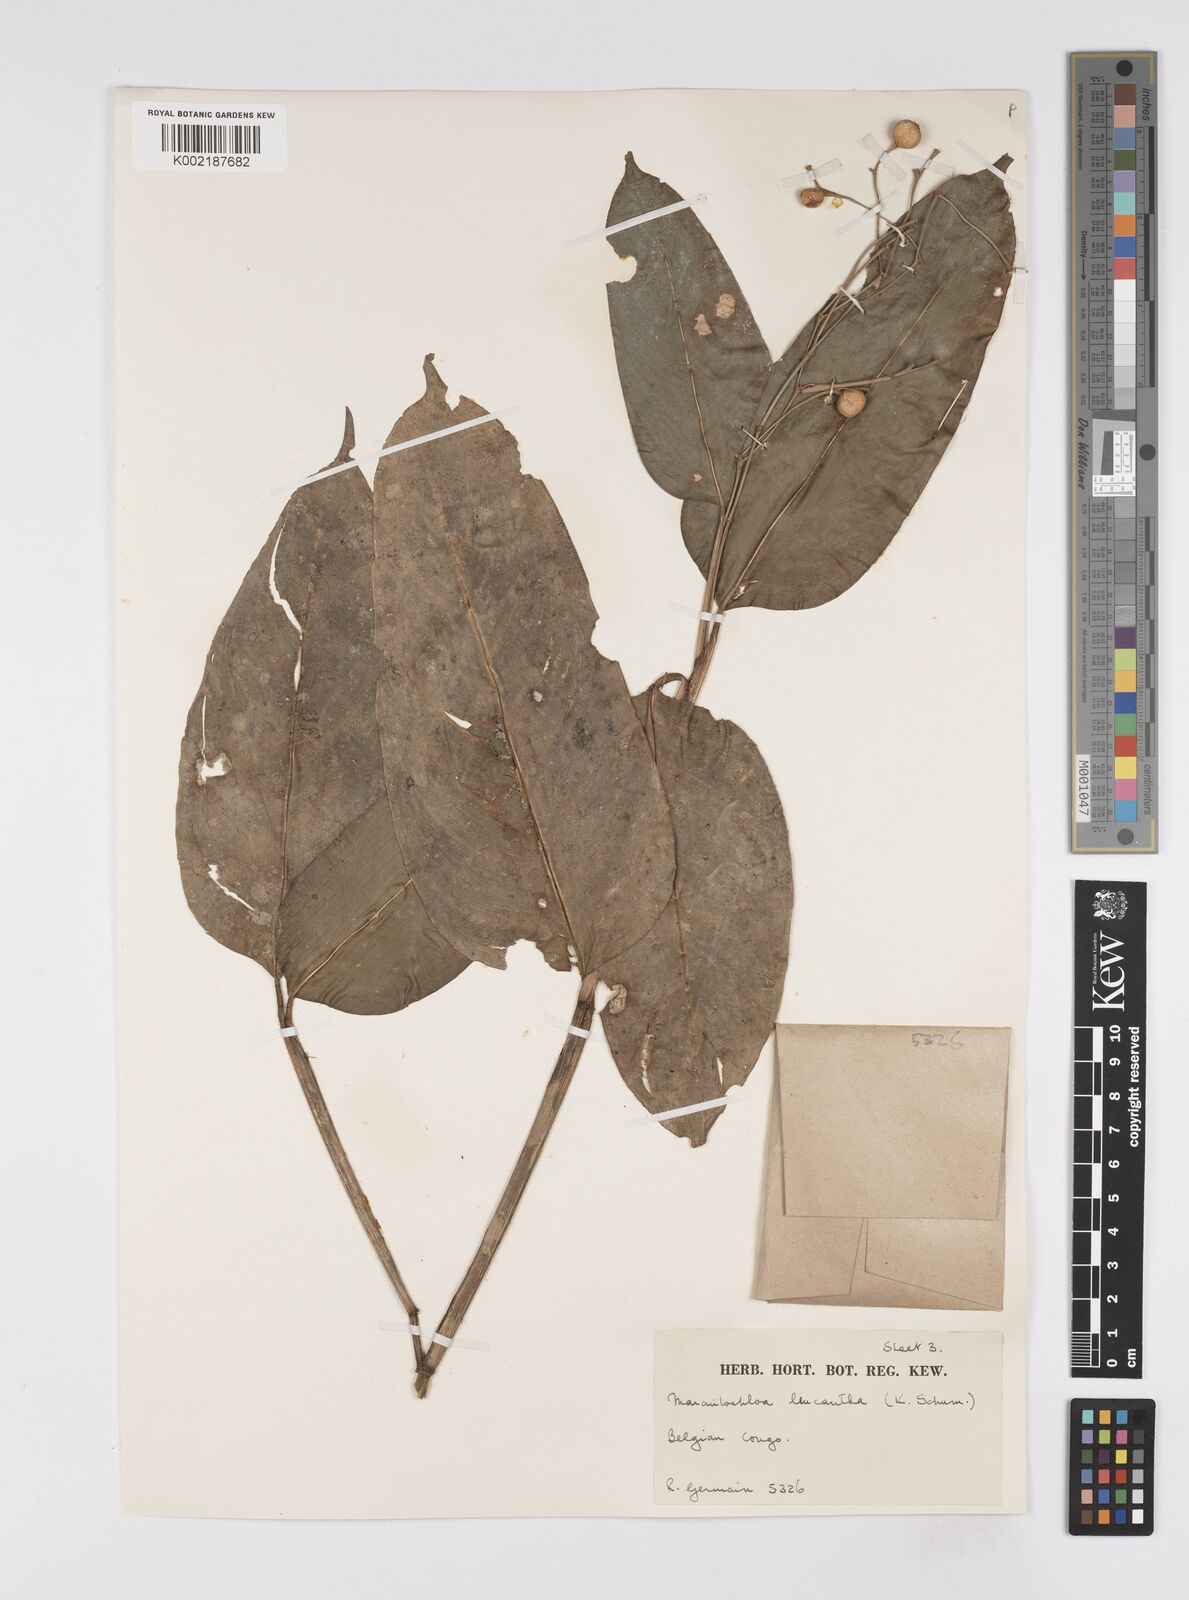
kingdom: Plantae
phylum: Tracheophyta
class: Liliopsida
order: Zingiberales
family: Marantaceae
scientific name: Marantaceae
